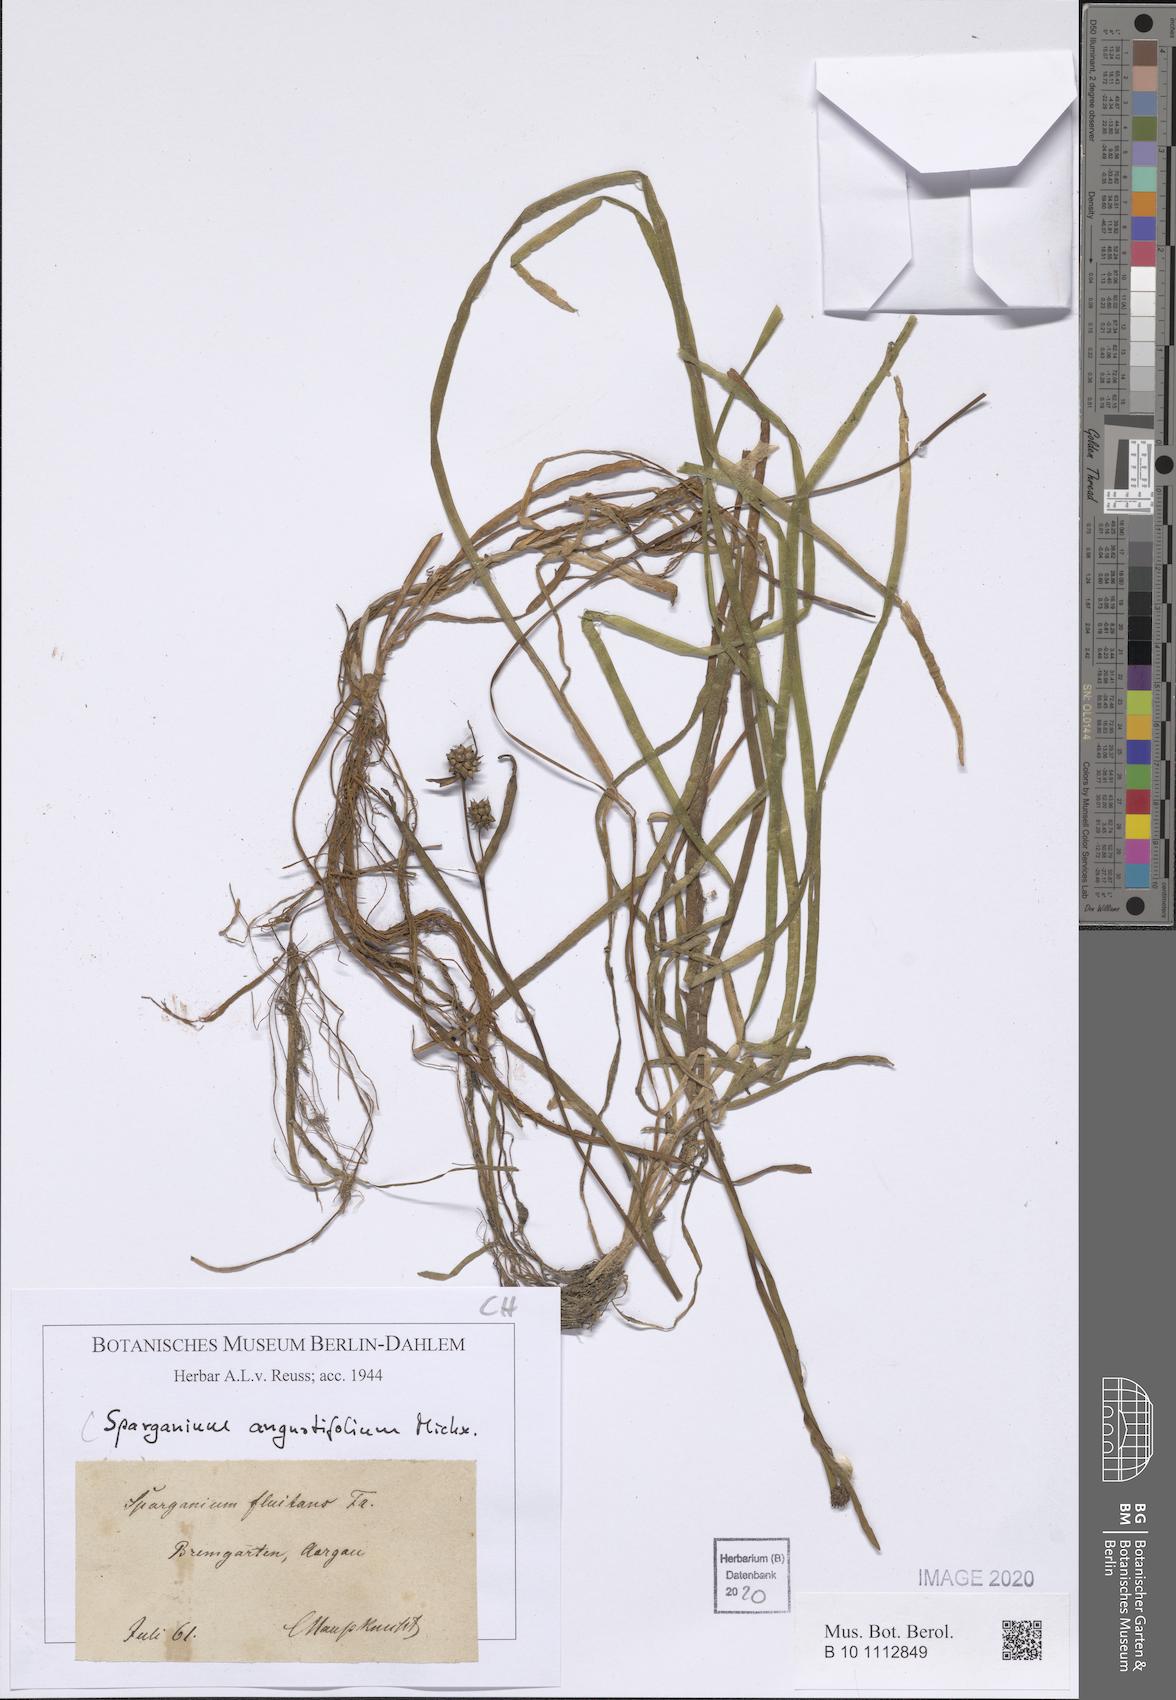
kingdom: Plantae
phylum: Tracheophyta
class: Liliopsida
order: Poales
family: Typhaceae
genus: Sparganium
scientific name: Sparganium angustifolium
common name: Floating bur-reed
